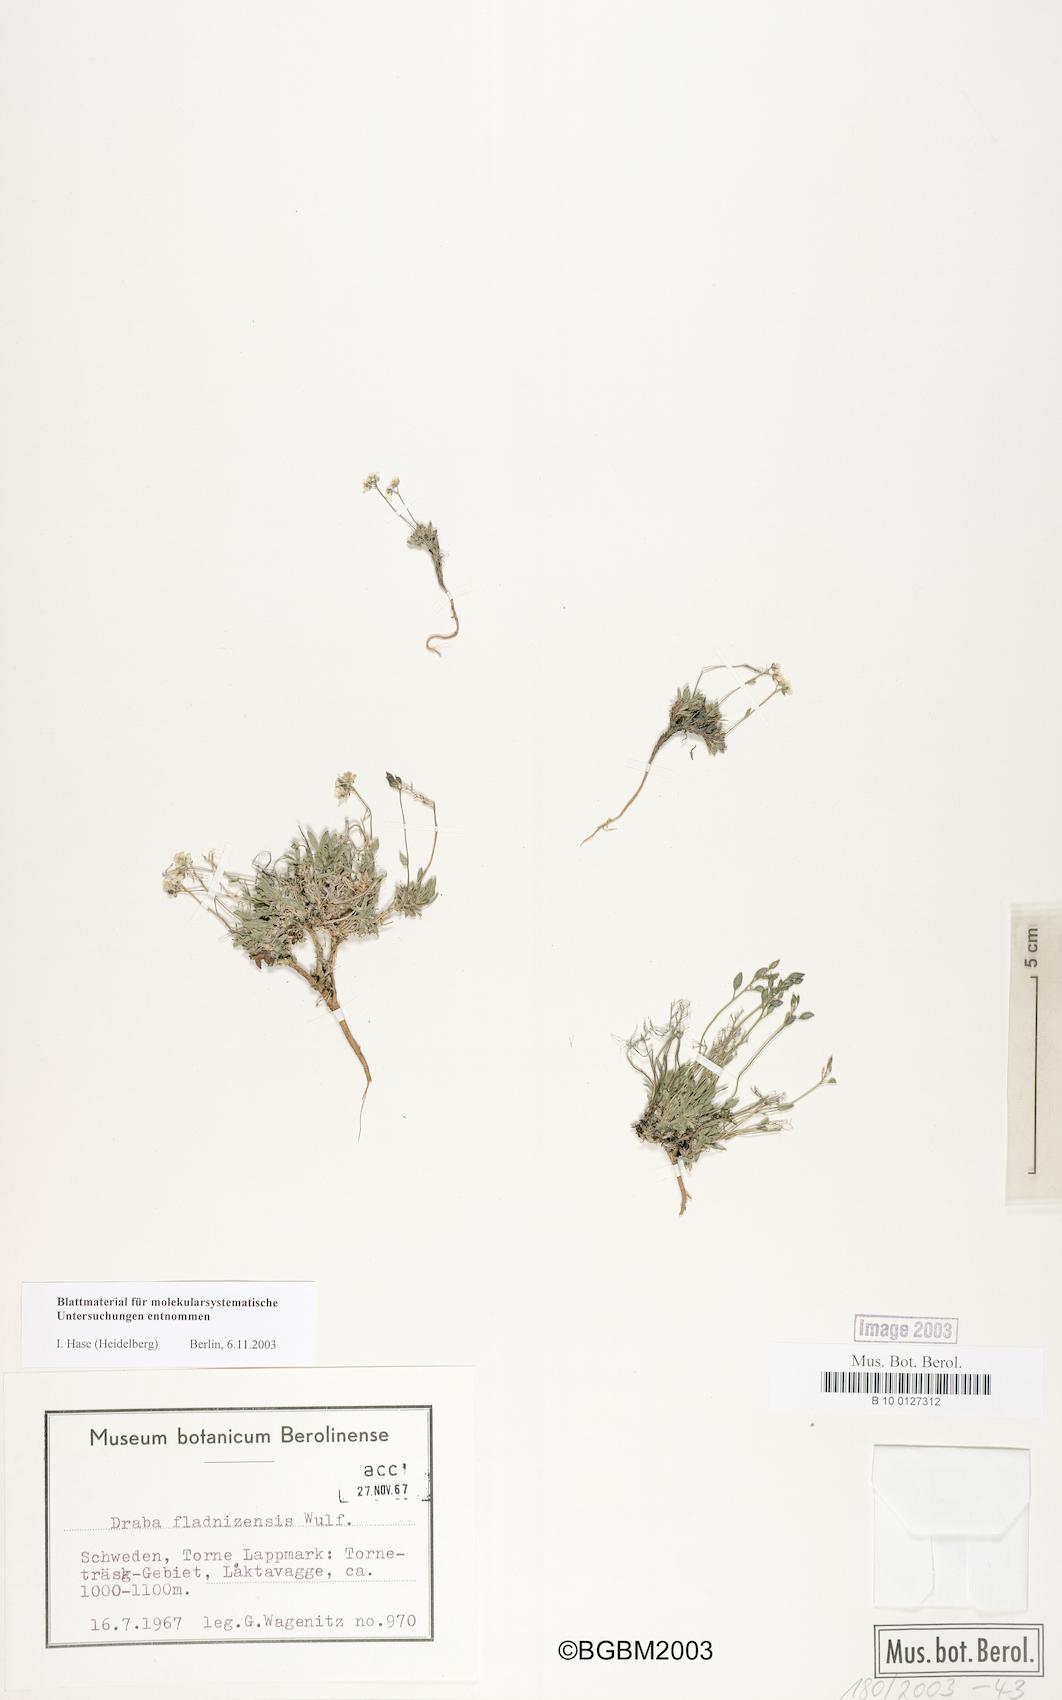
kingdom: Plantae
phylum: Tracheophyta
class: Magnoliopsida
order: Brassicales
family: Brassicaceae
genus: Draba
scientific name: Draba fladnizensis
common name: Austrian draba
